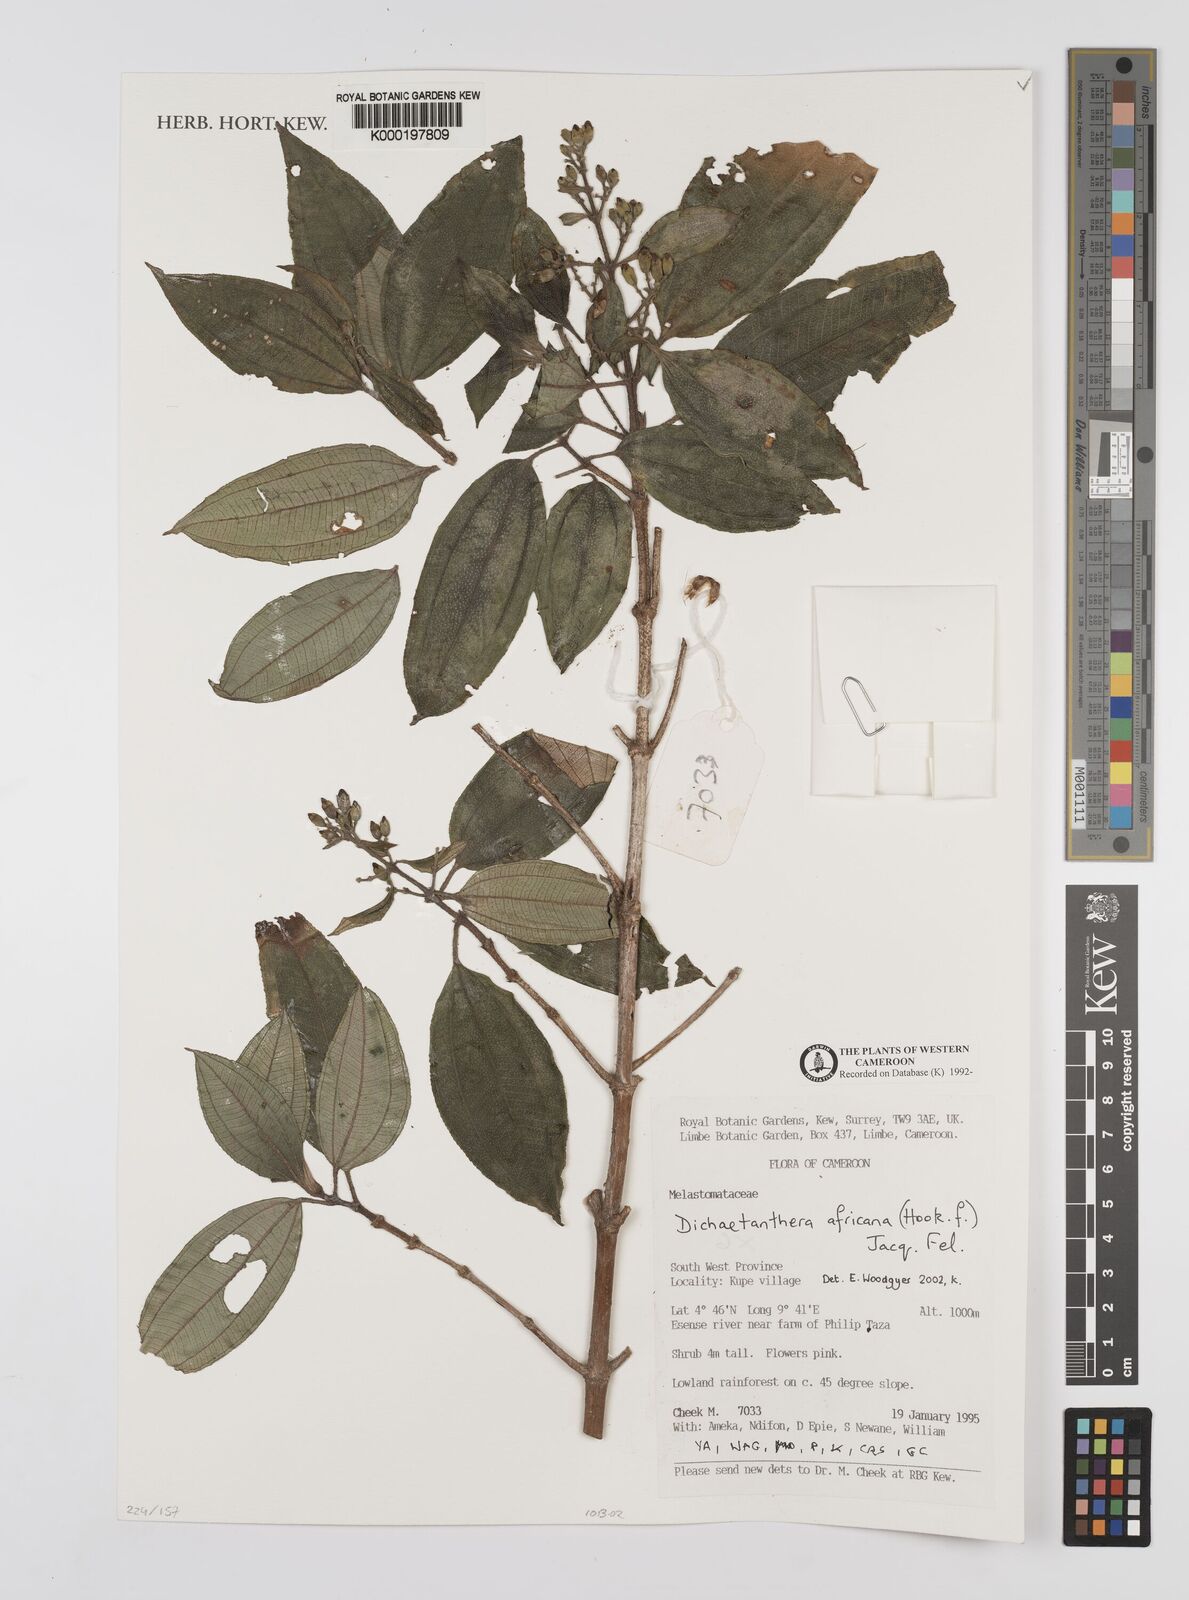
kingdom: Plantae
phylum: Tracheophyta
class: Magnoliopsida
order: Myrtales
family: Melastomataceae
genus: Dichaetanthera
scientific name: Dichaetanthera
